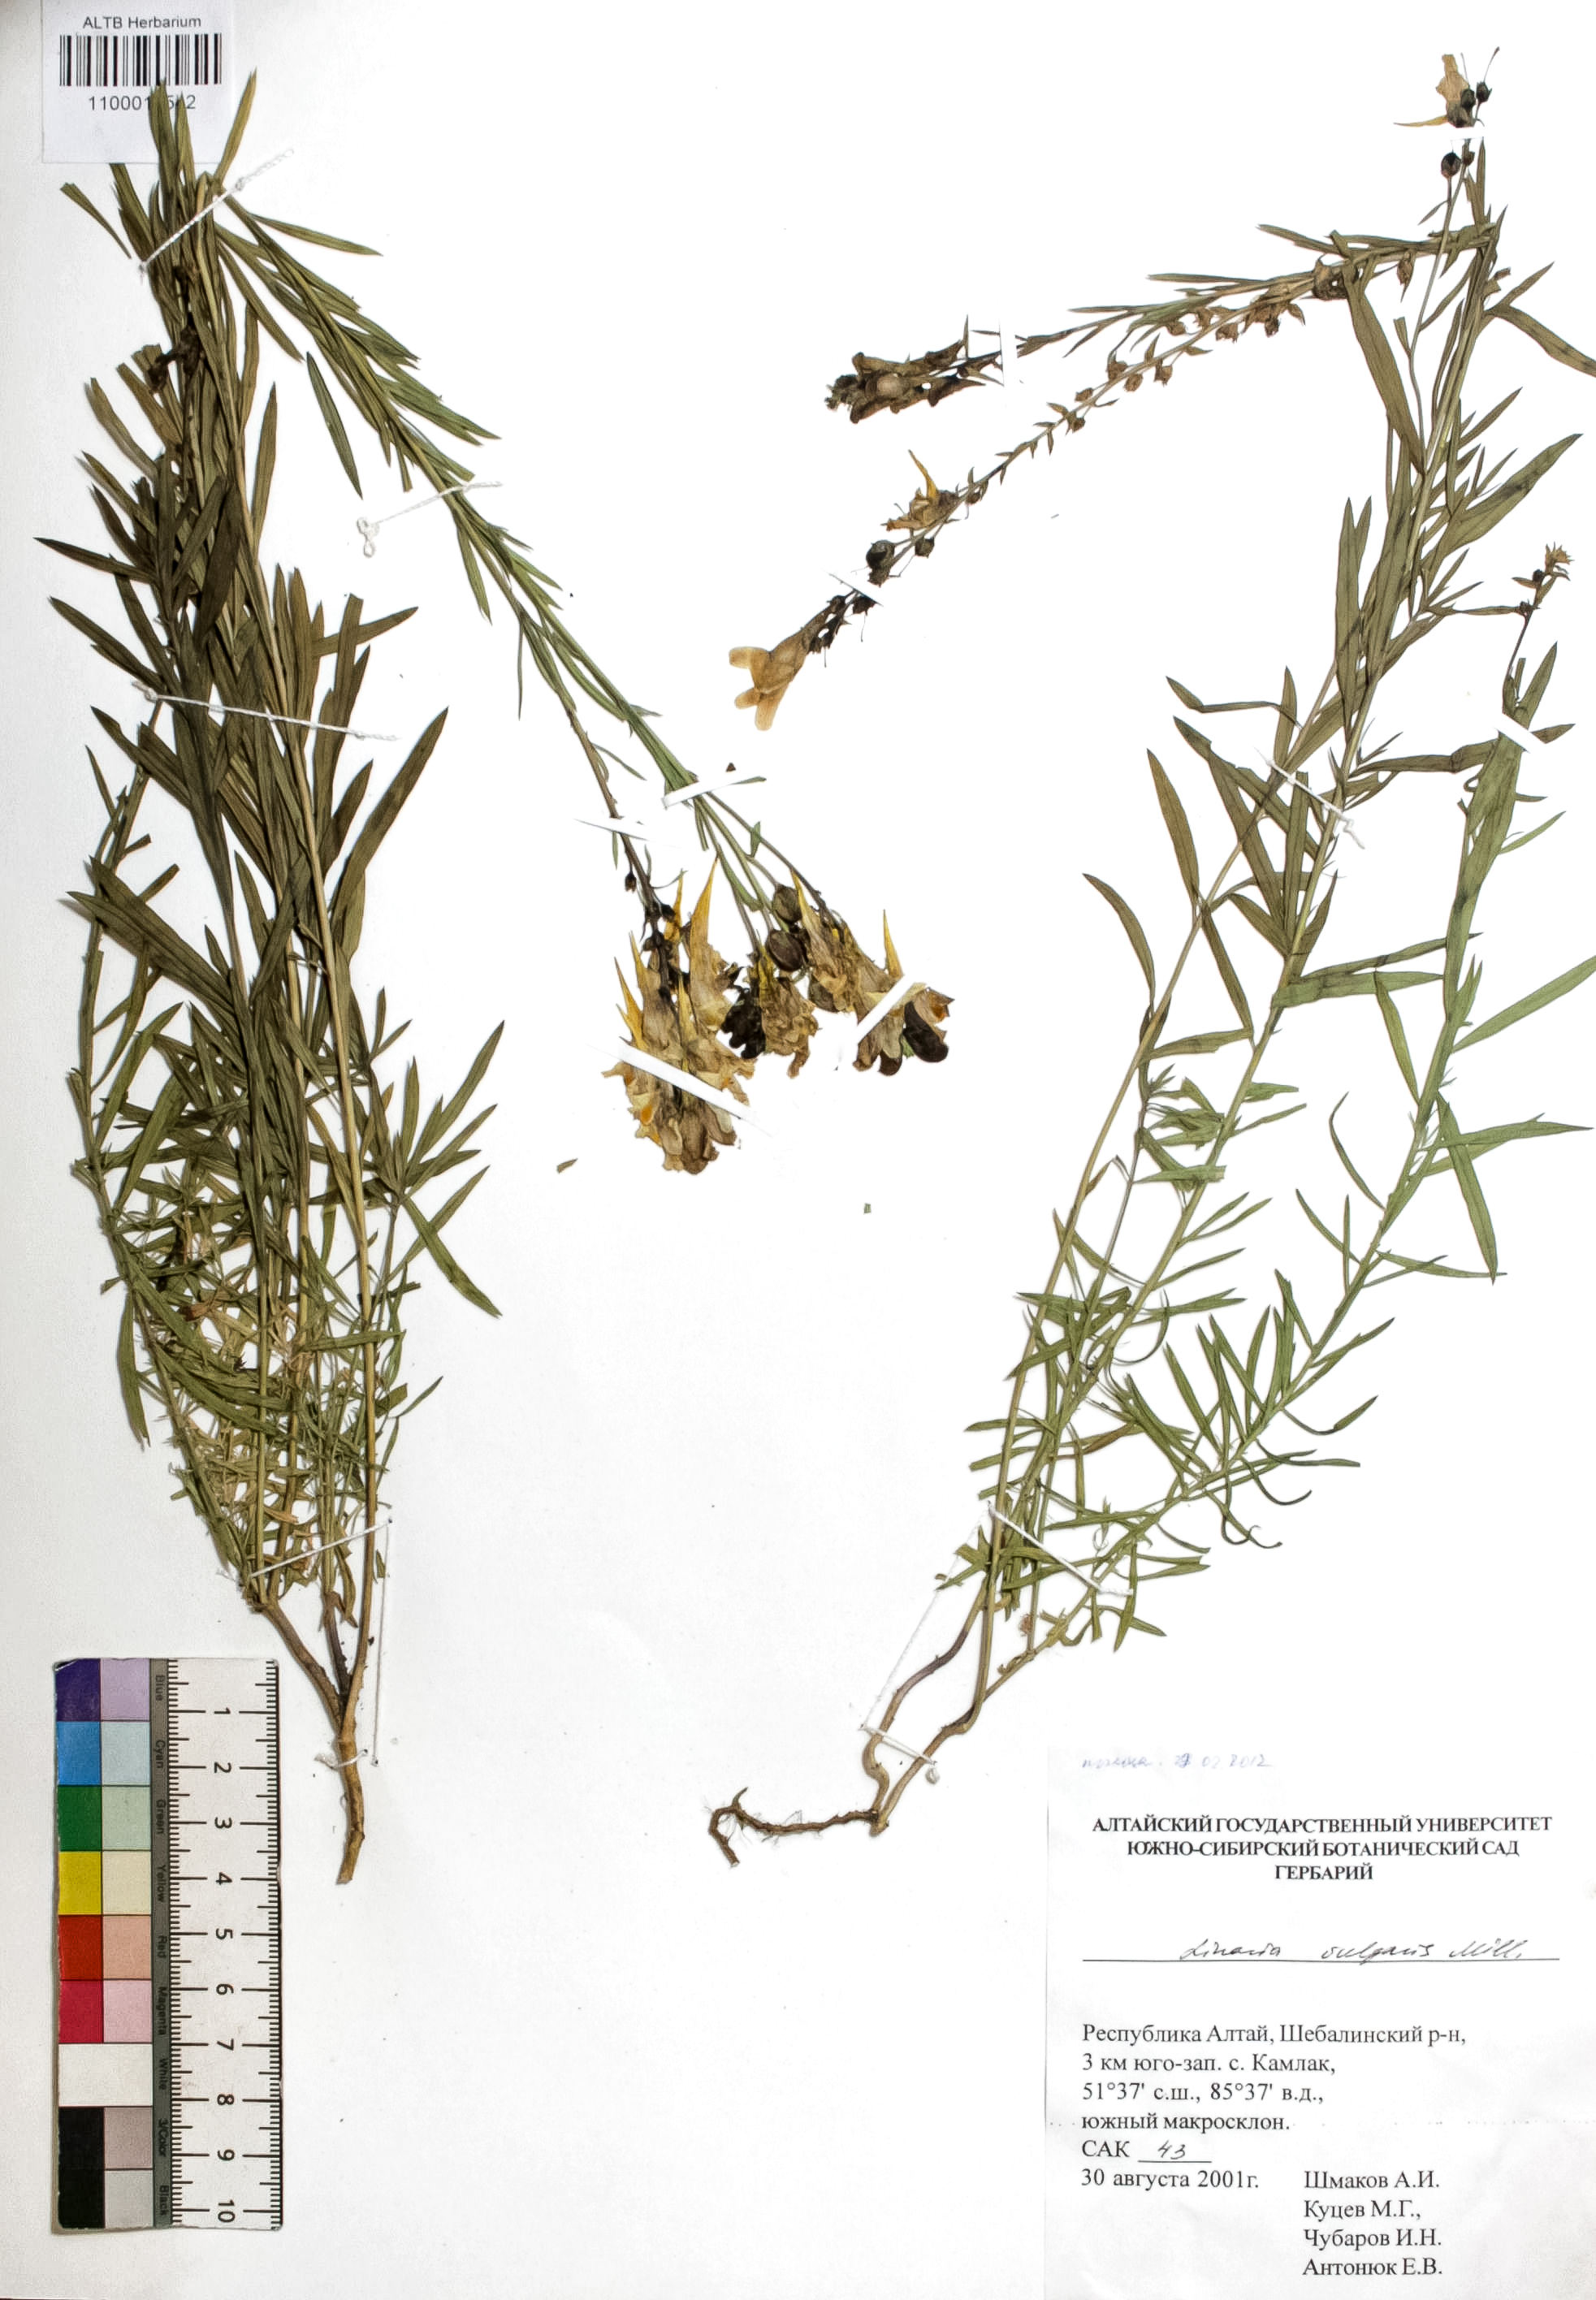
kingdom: Plantae
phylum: Tracheophyta
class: Magnoliopsida
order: Lamiales
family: Plantaginaceae
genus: Linaria
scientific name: Linaria vulgaris
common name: Butter and eggs
